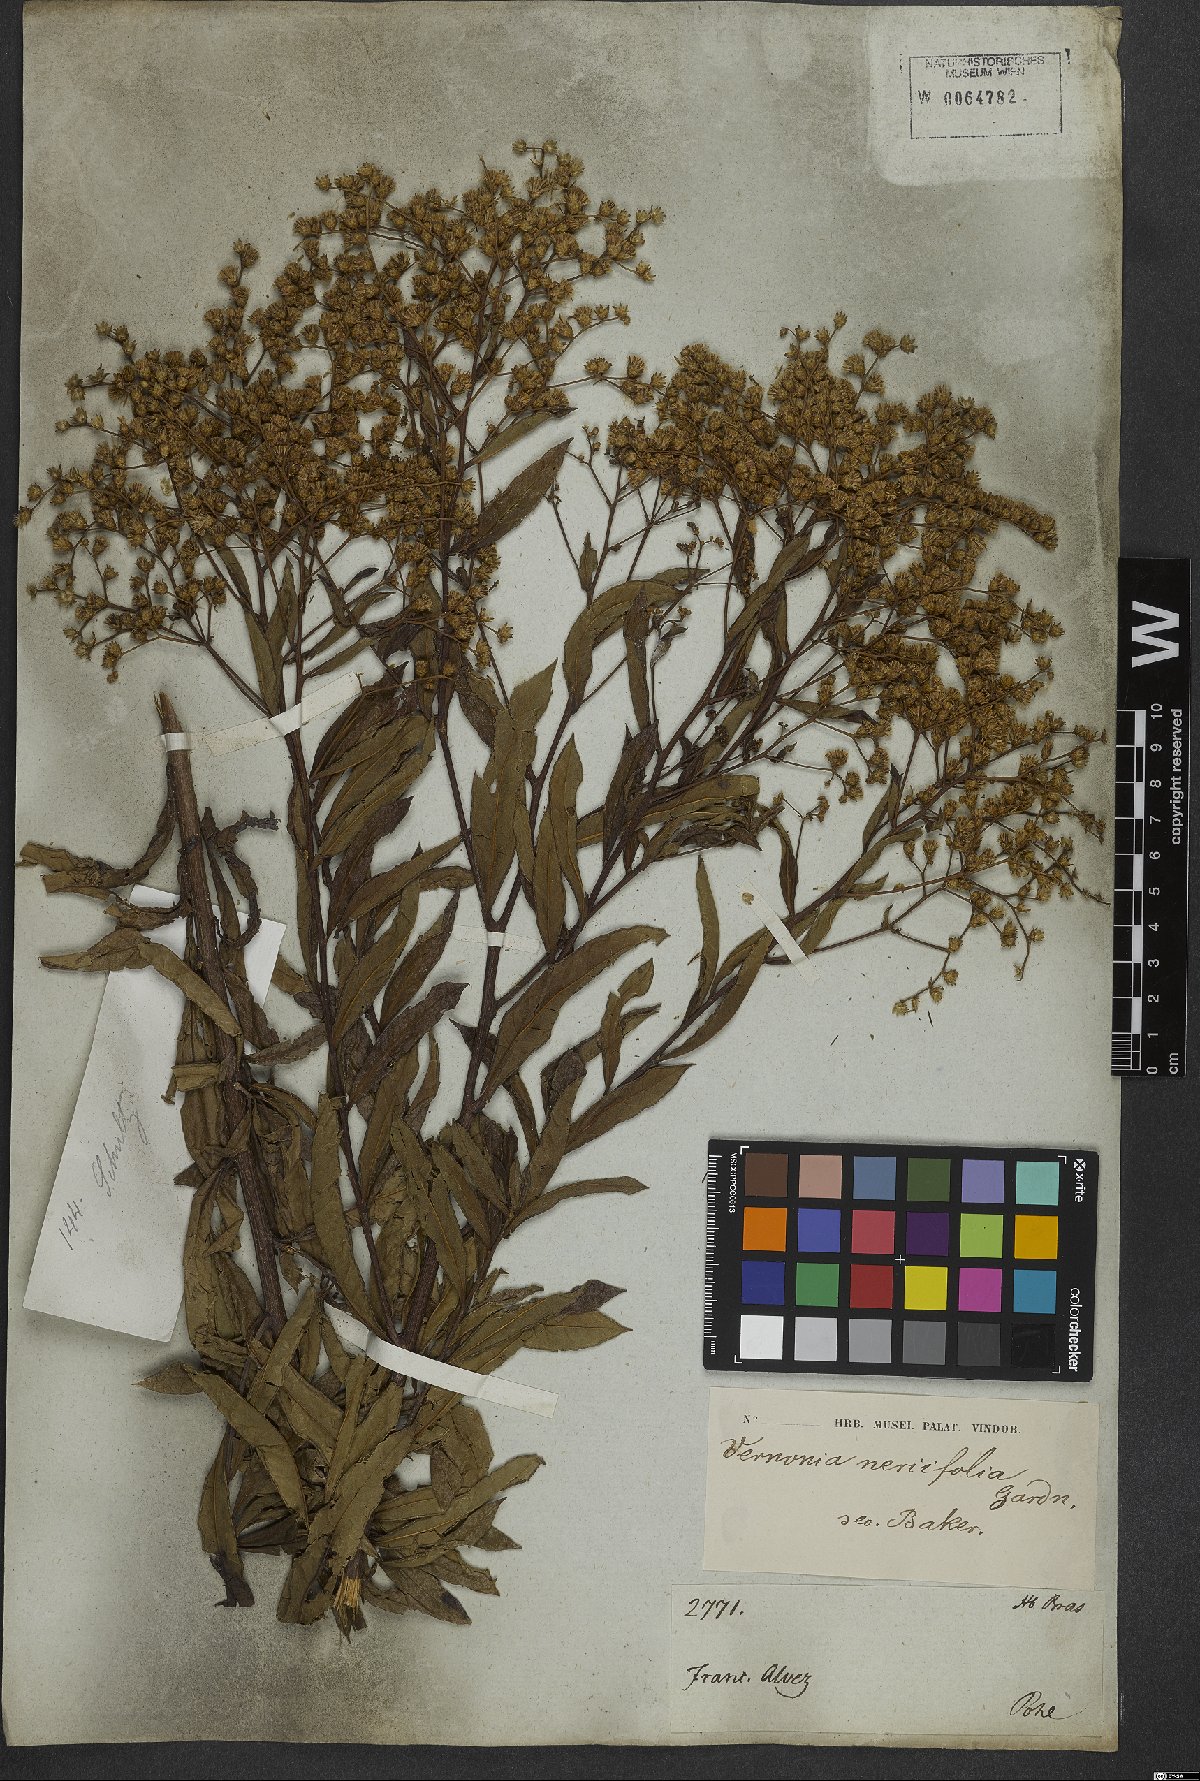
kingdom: Plantae
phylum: Tracheophyta
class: Magnoliopsida
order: Asterales
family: Asteraceae
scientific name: Asteraceae
